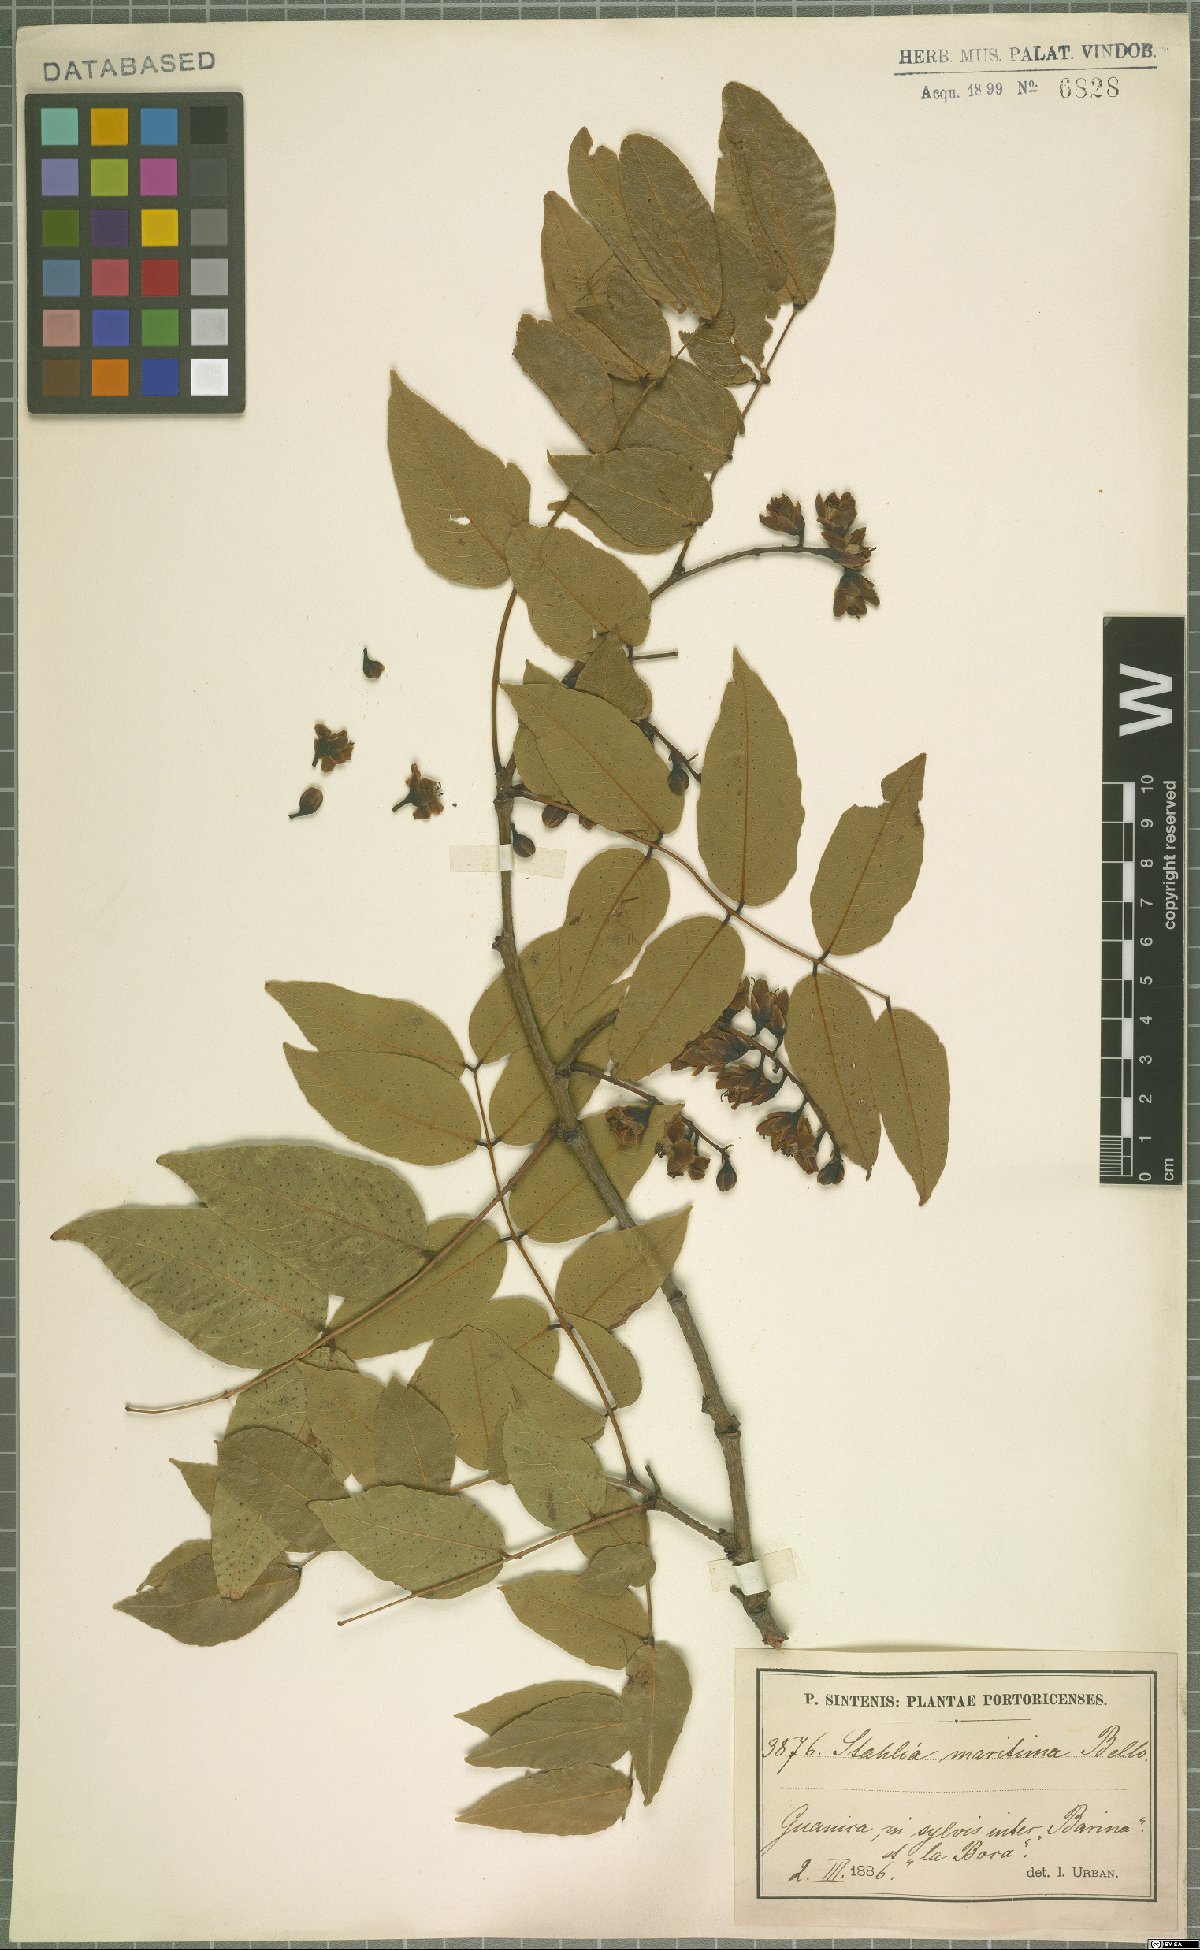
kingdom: Plantae
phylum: Tracheophyta
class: Magnoliopsida
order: Fabales
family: Fabaceae
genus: Libidibia
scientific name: Libidibia monosperma
